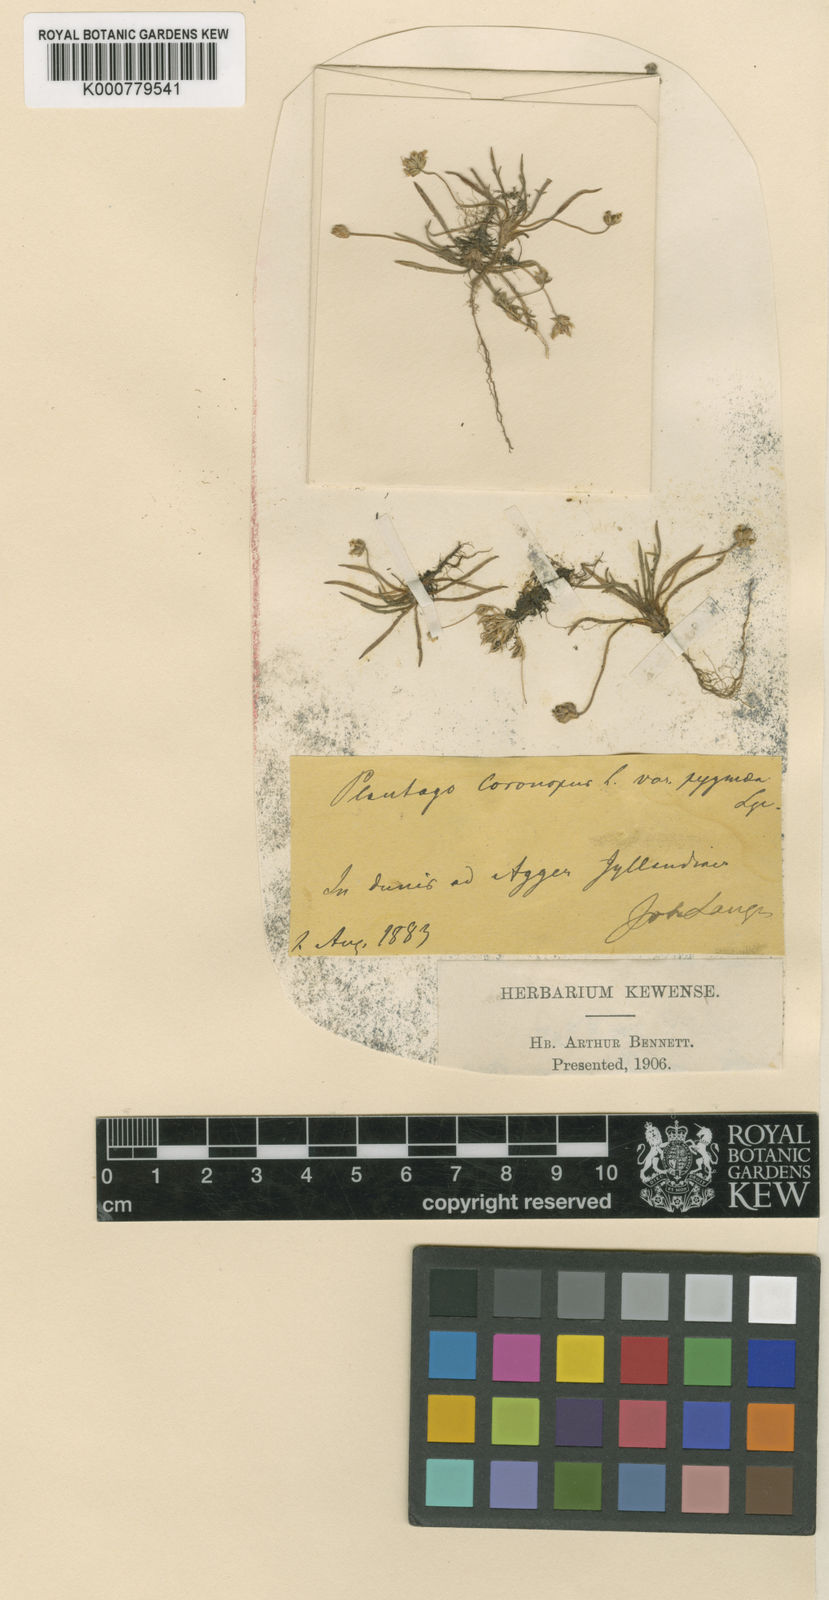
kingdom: Plantae
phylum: Tracheophyta
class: Magnoliopsida
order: Lamiales
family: Plantaginaceae
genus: Plantago
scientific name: Plantago coronopus
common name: Buck's-horn plantain
